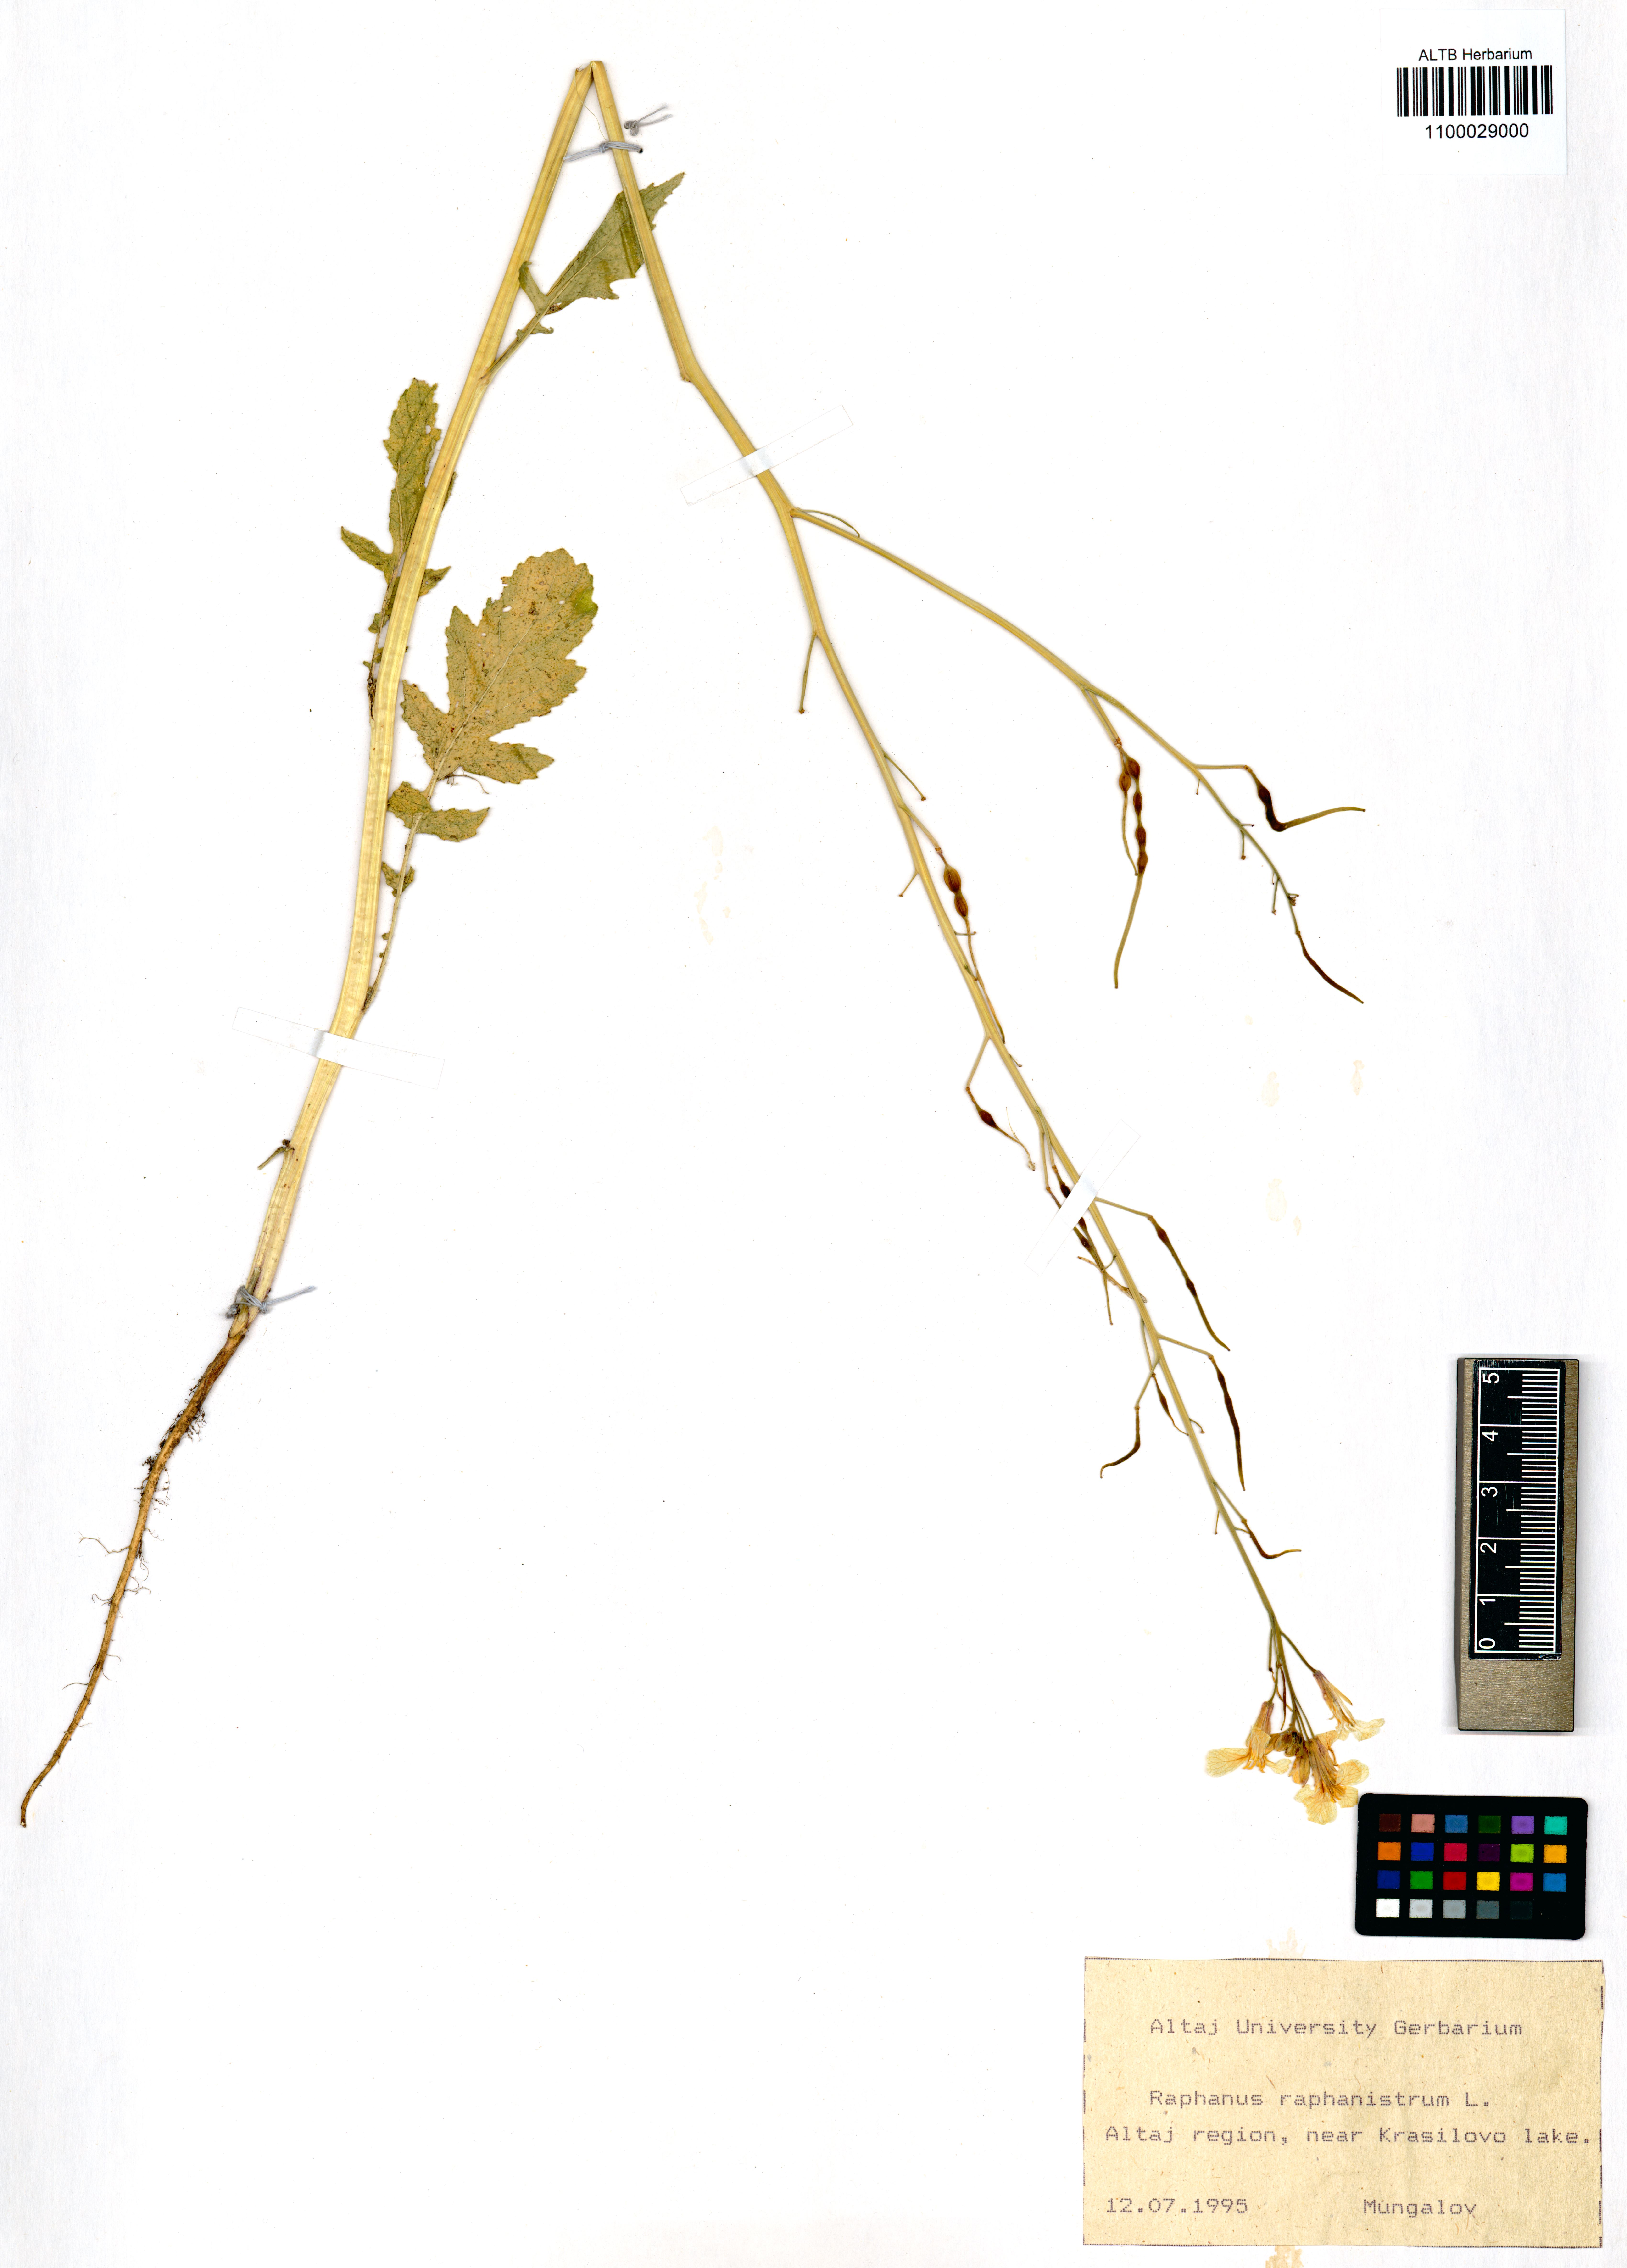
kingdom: Plantae
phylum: Tracheophyta
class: Magnoliopsida
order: Brassicales
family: Brassicaceae
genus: Raphanus
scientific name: Raphanus raphanistrum
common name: Wild radish
